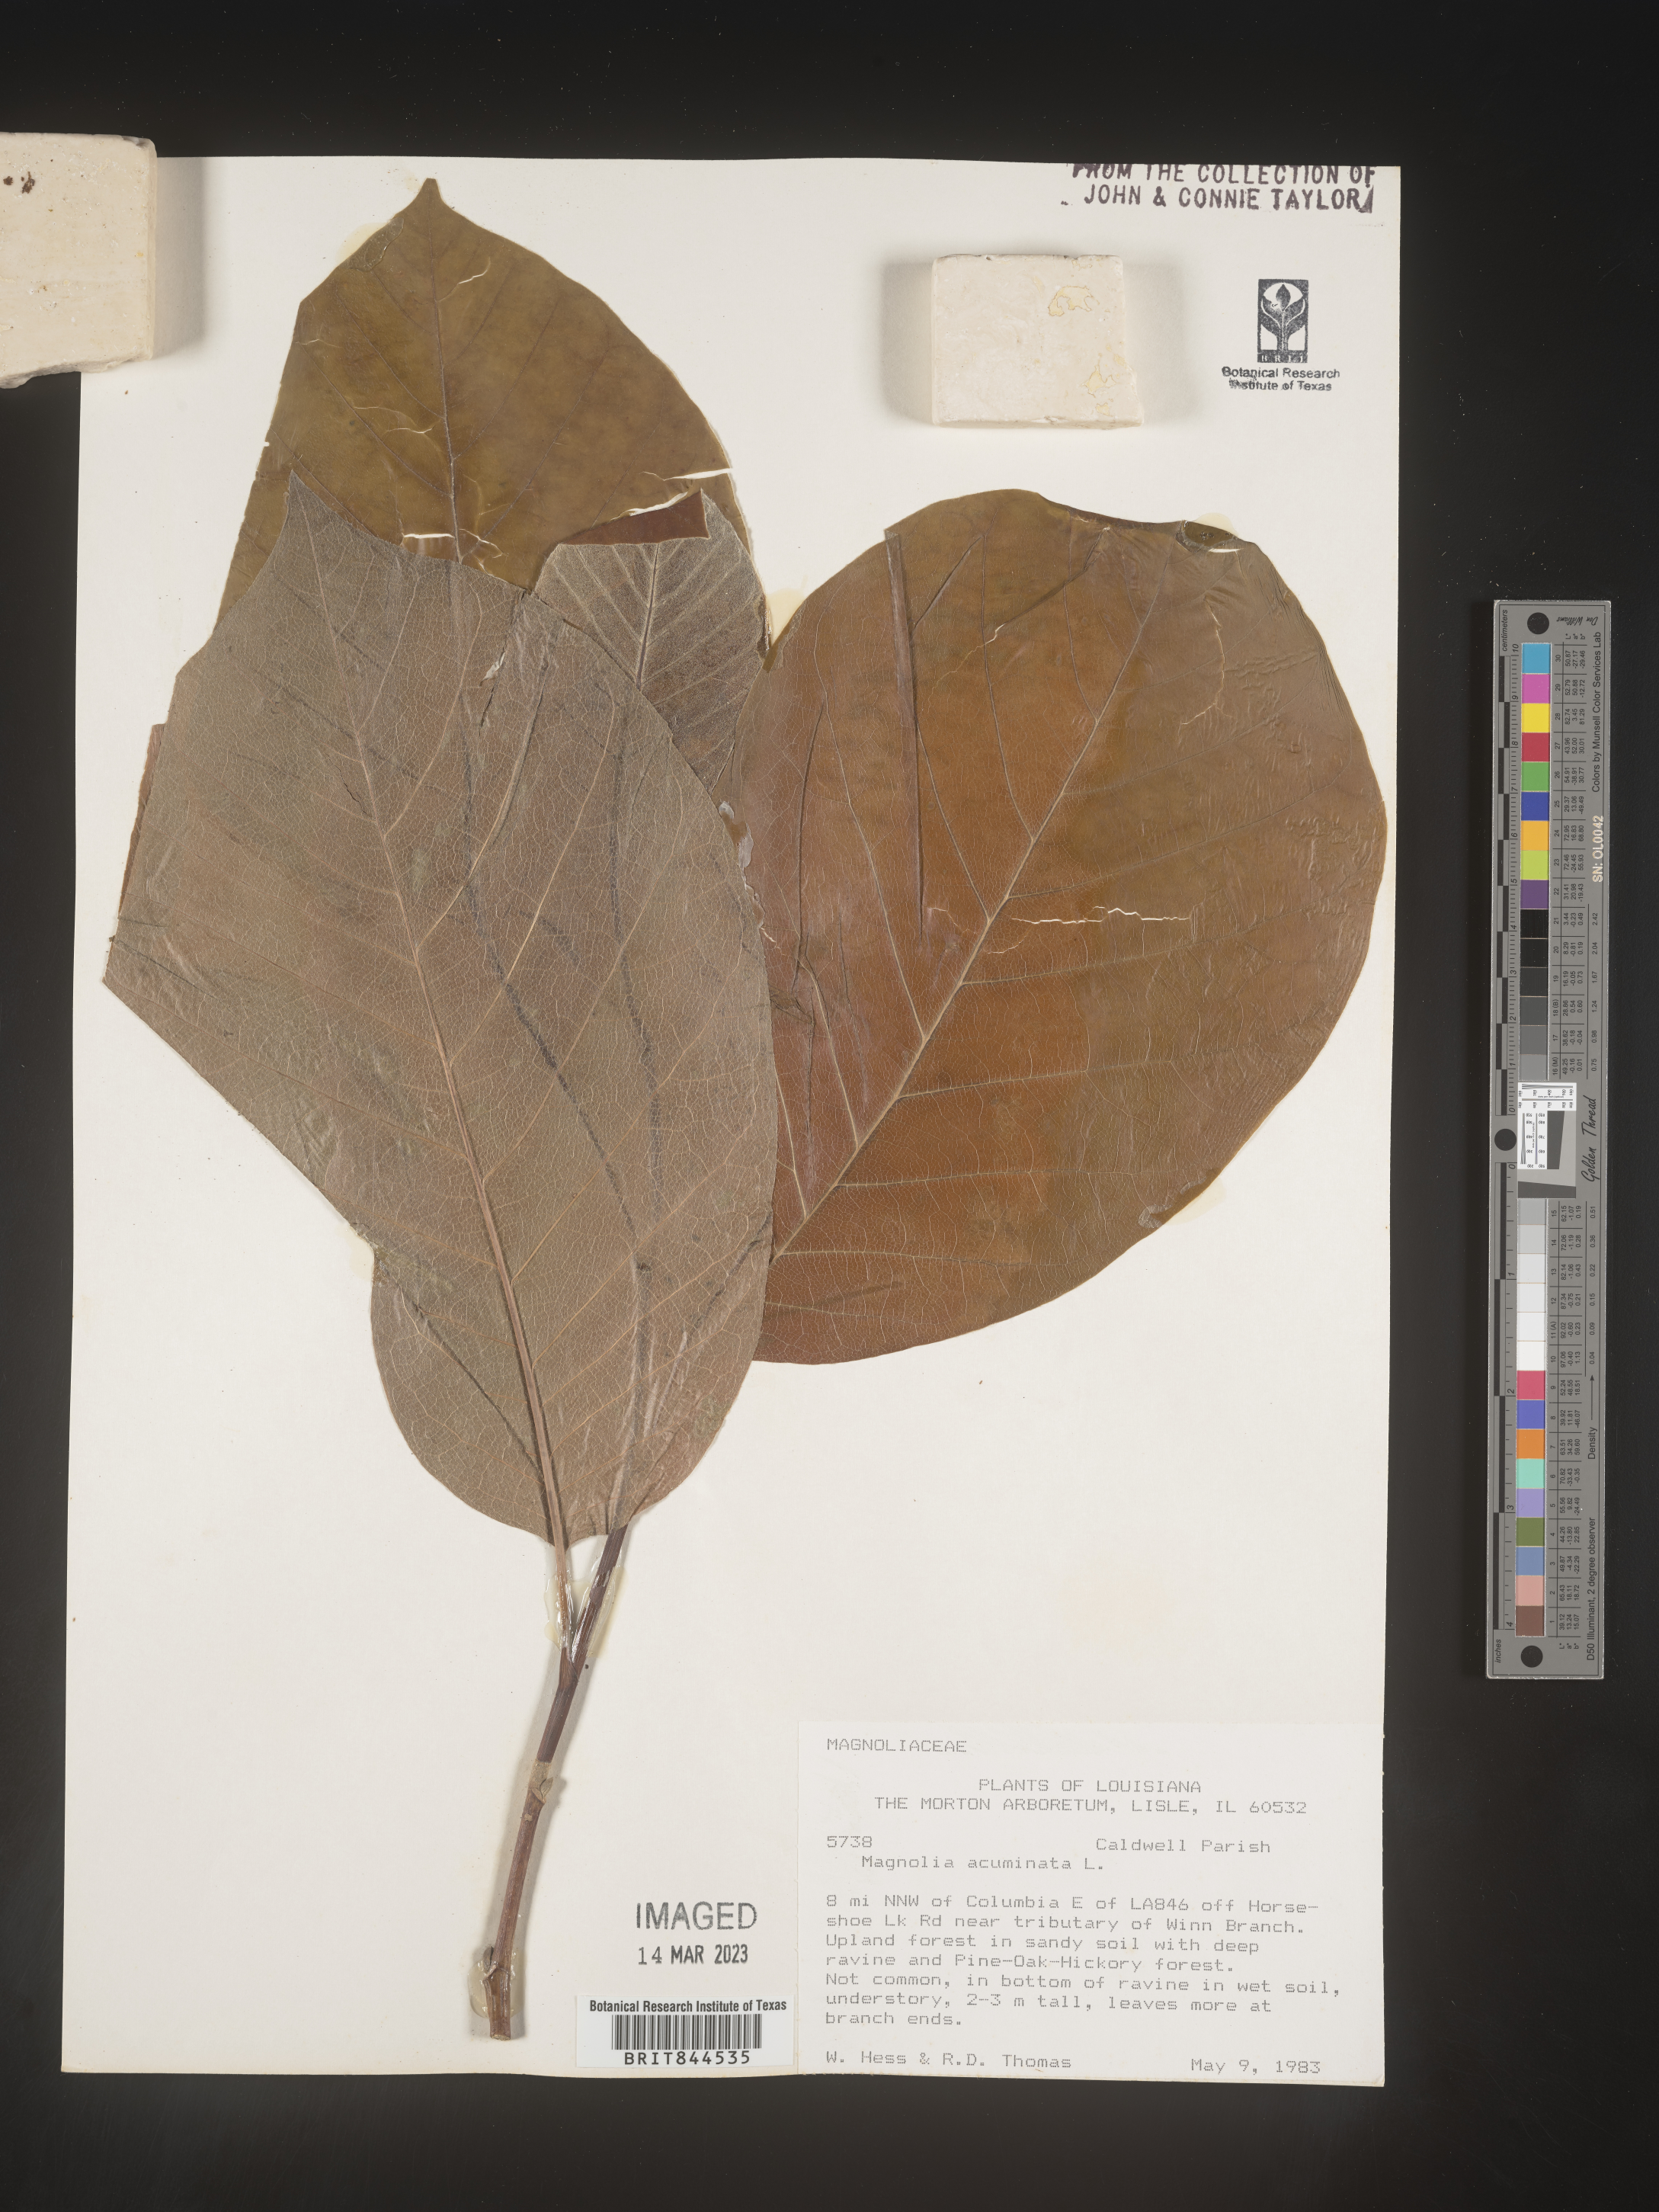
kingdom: Plantae
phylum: Tracheophyta
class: Magnoliopsida
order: Magnoliales
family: Magnoliaceae
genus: Magnolia
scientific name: Magnolia acuminata
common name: Cucumber magnolia
